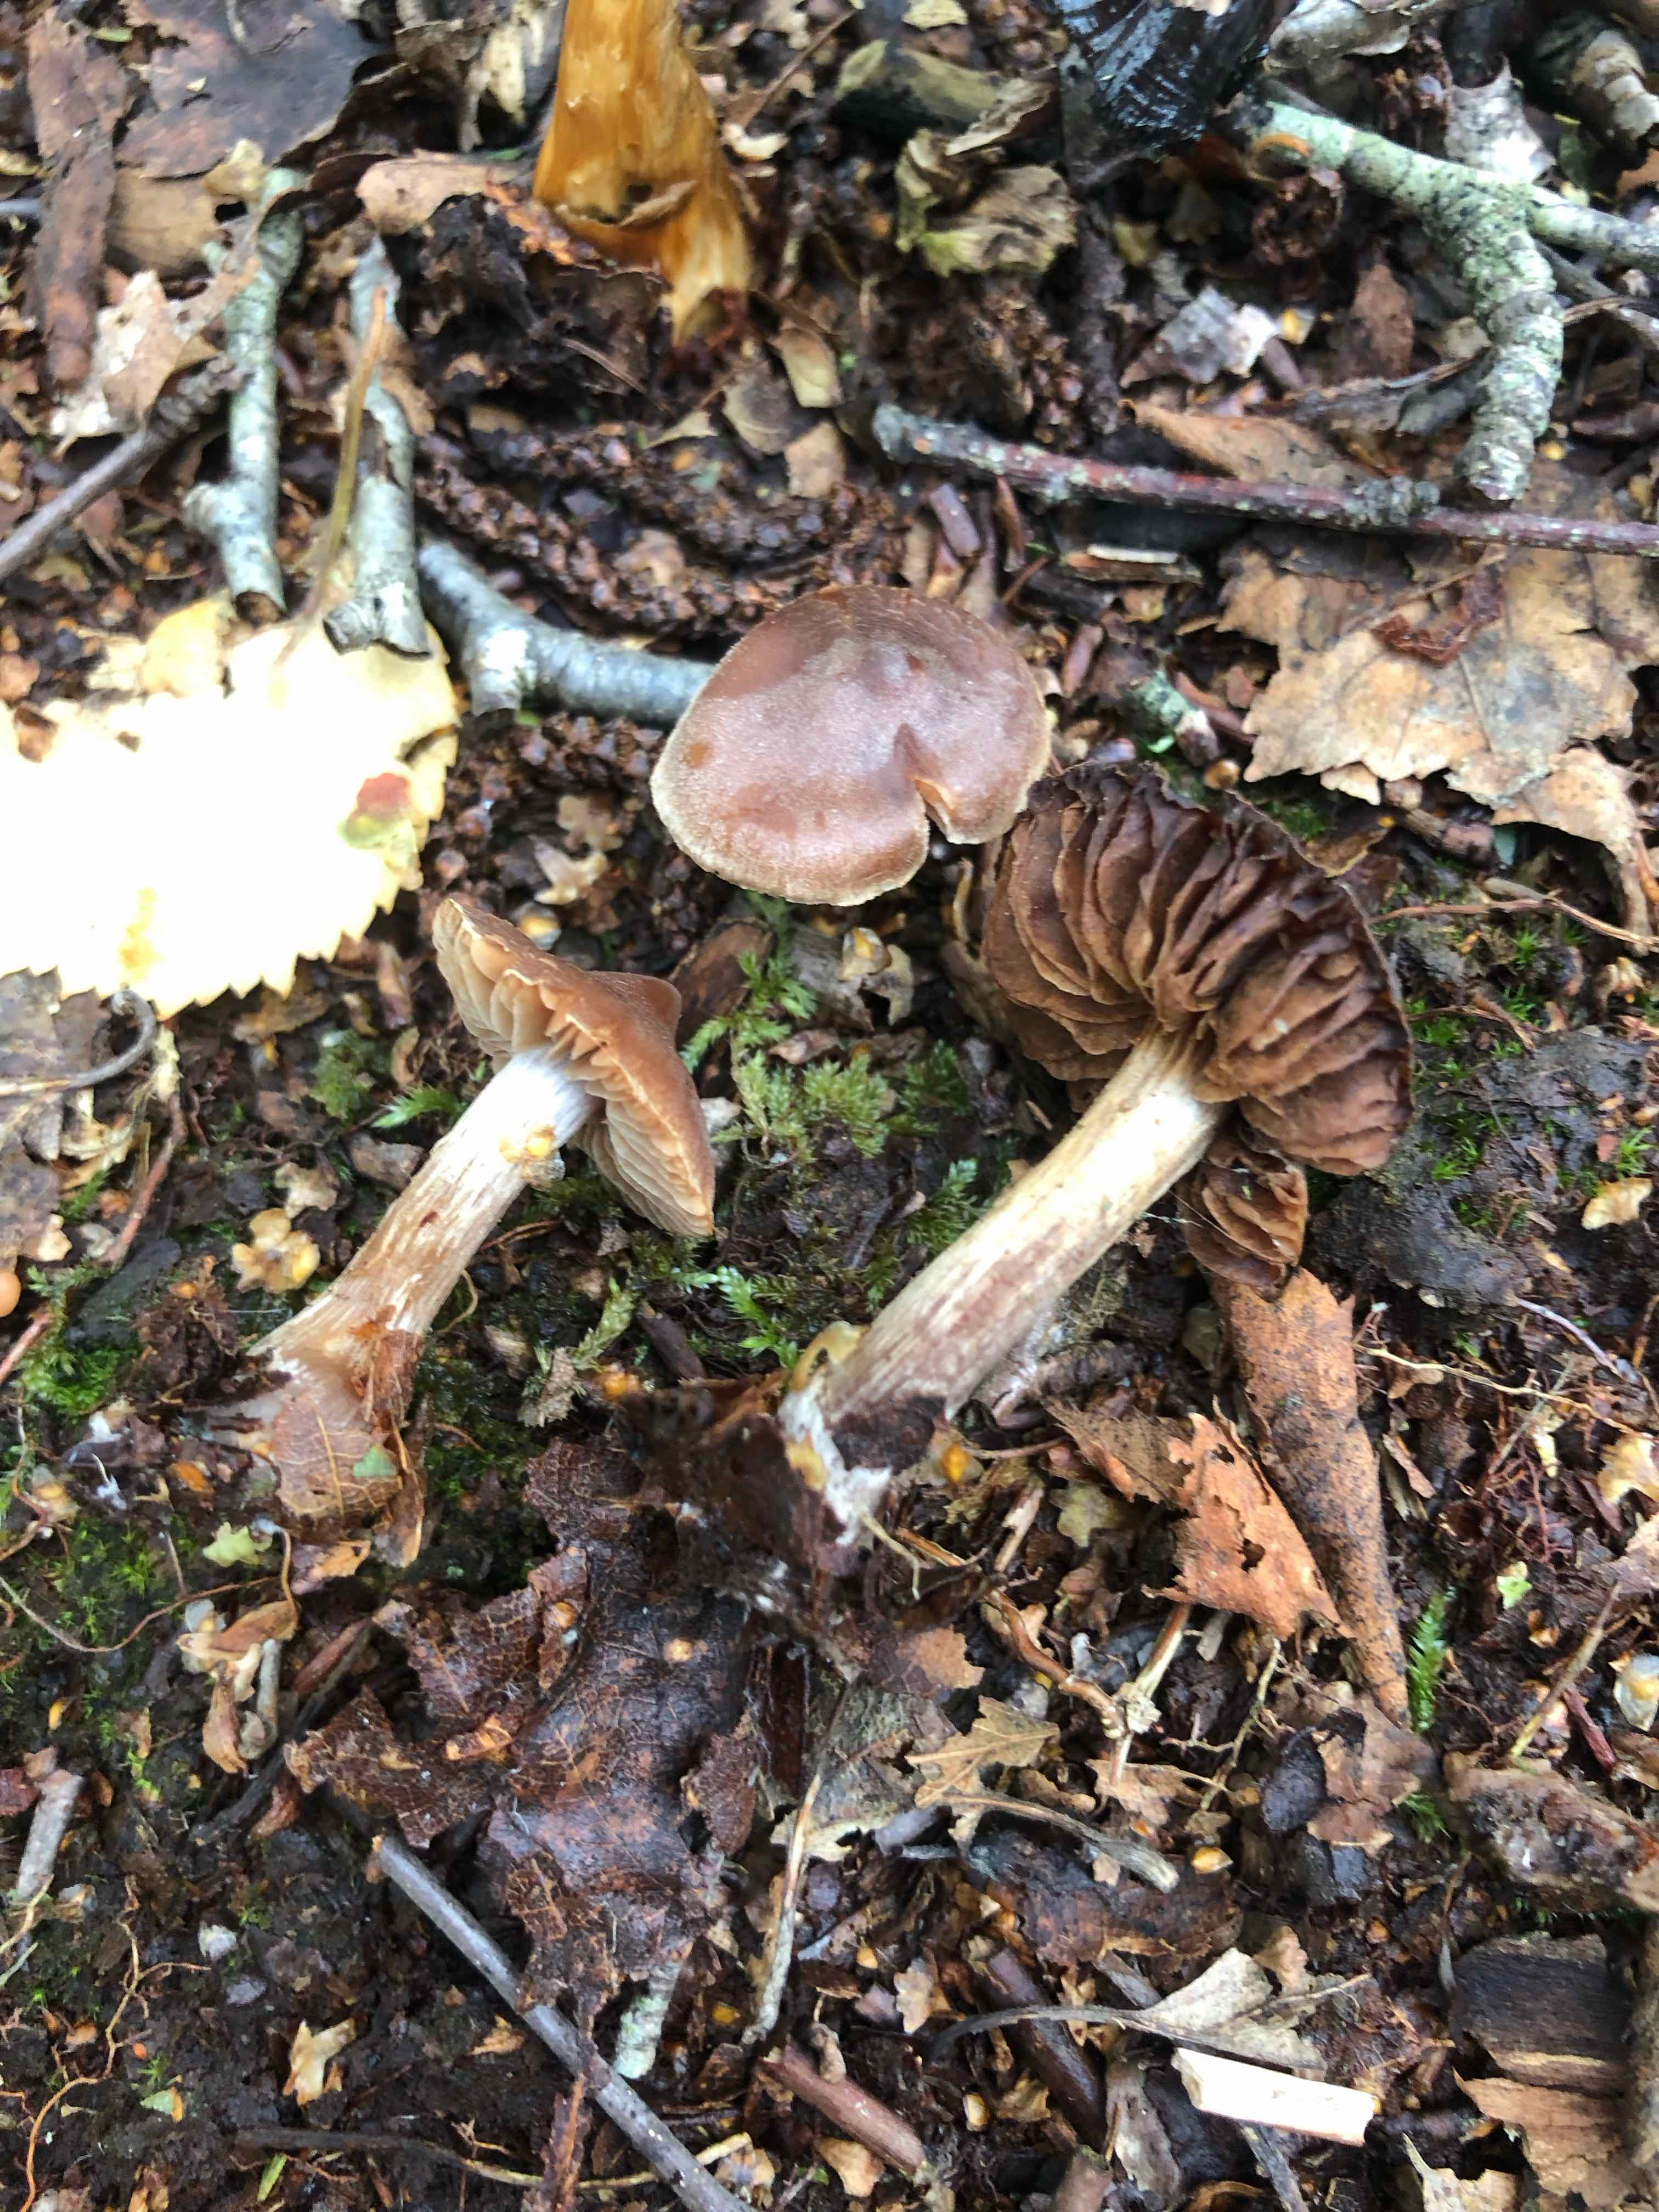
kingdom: Fungi
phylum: Basidiomycota
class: Agaricomycetes
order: Agaricales
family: Cortinariaceae
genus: Cortinarius
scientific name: Cortinarius
